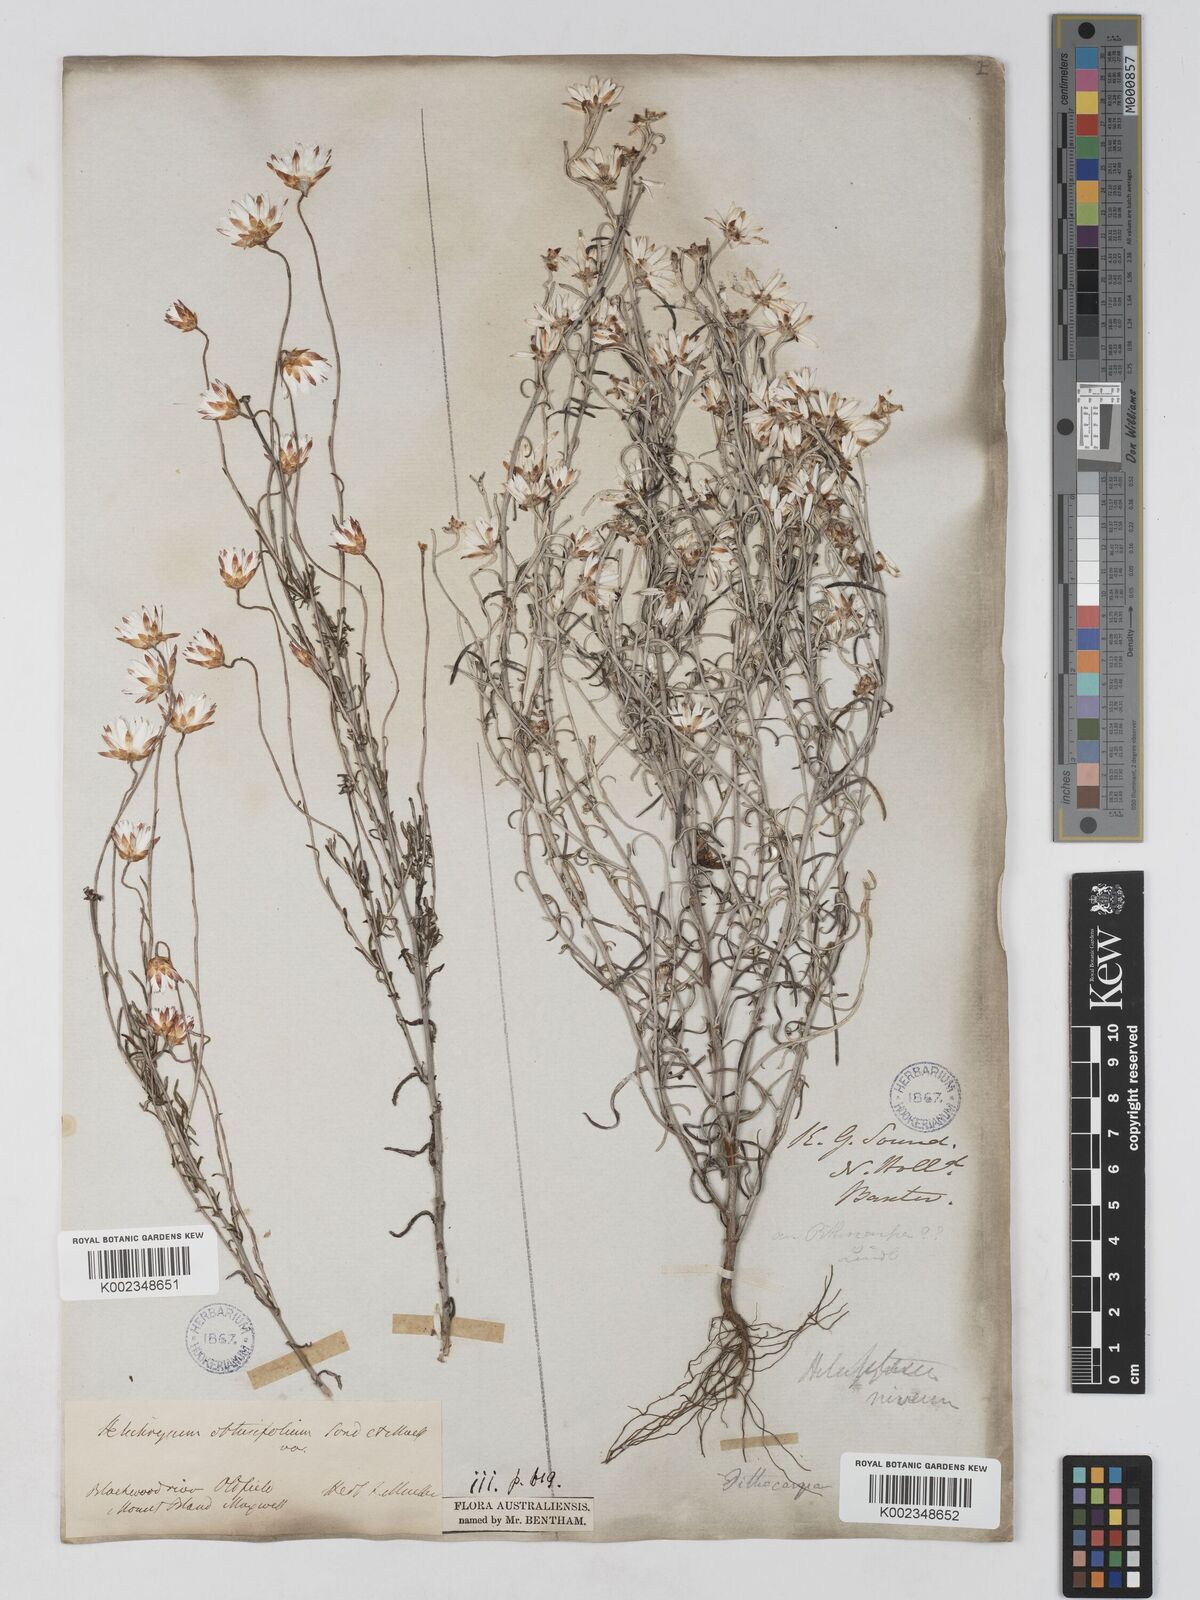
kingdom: Plantae
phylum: Tracheophyta
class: Magnoliopsida
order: Asterales
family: Asteraceae
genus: Argentipallium
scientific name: Argentipallium obtusifolium
